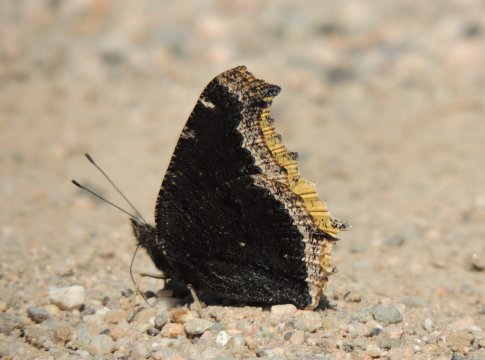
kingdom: Animalia
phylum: Arthropoda
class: Insecta
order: Lepidoptera
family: Nymphalidae
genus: Nymphalis
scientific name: Nymphalis antiopa
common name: Mourning Cloak
